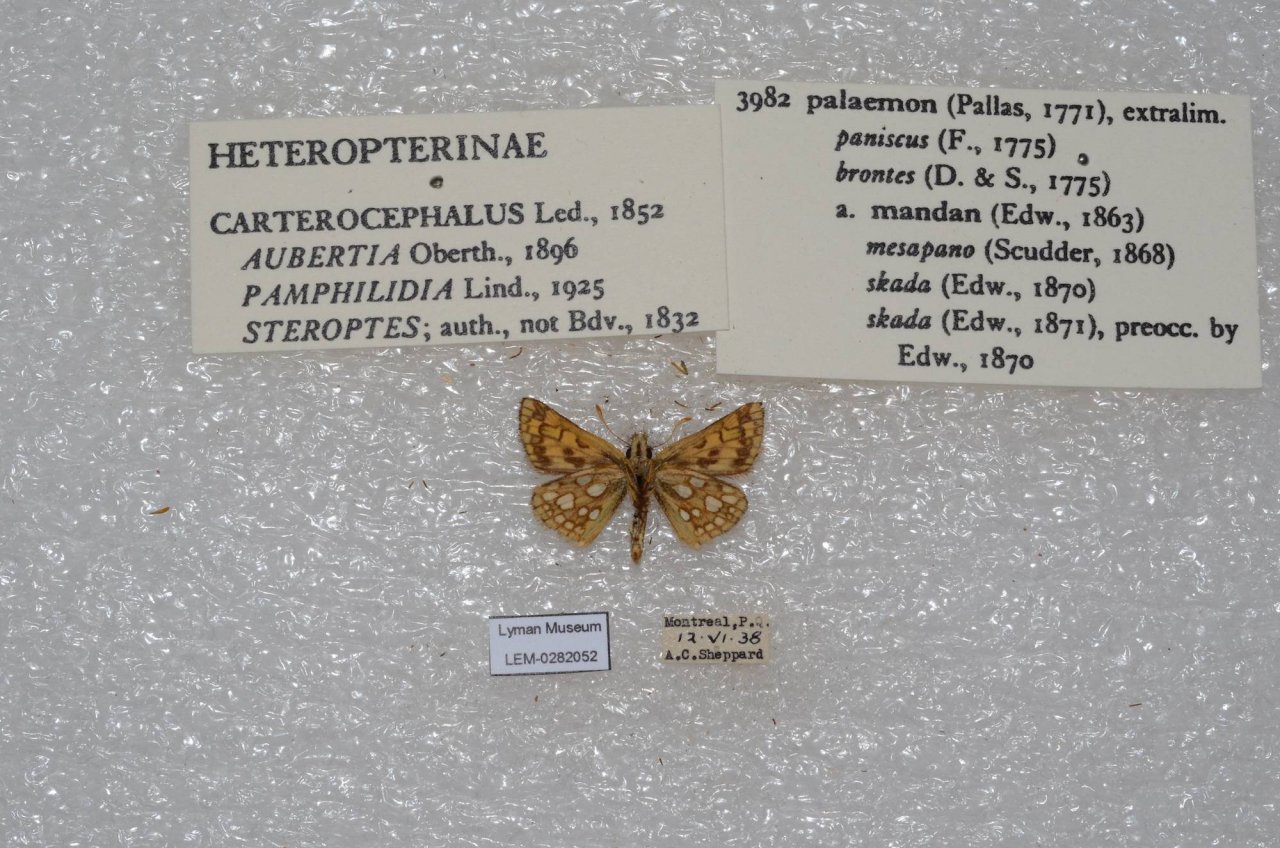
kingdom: Animalia
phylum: Arthropoda
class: Insecta
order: Lepidoptera
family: Hesperiidae
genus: Carterocephalus
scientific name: Carterocephalus palaemon
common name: Chequered Skipper
